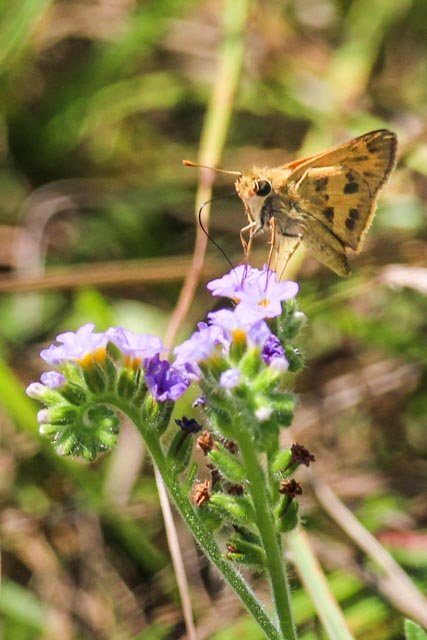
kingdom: Animalia
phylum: Arthropoda
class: Insecta
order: Lepidoptera
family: Hesperiidae
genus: Polites
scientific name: Polites vibex
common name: Whirlabout
